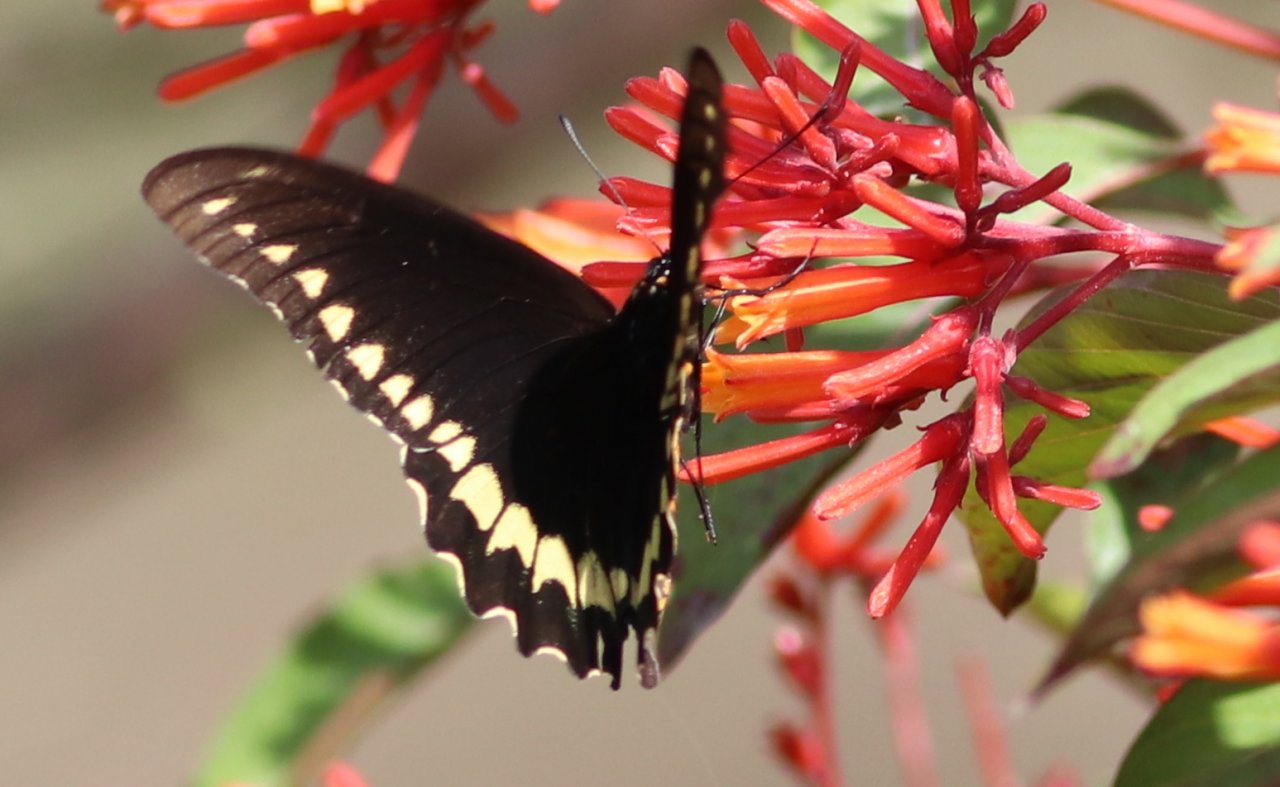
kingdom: Animalia
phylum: Arthropoda
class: Insecta
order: Lepidoptera
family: Papilionidae
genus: Battus
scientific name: Battus polydamas
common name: Polydamas Swallowtail
